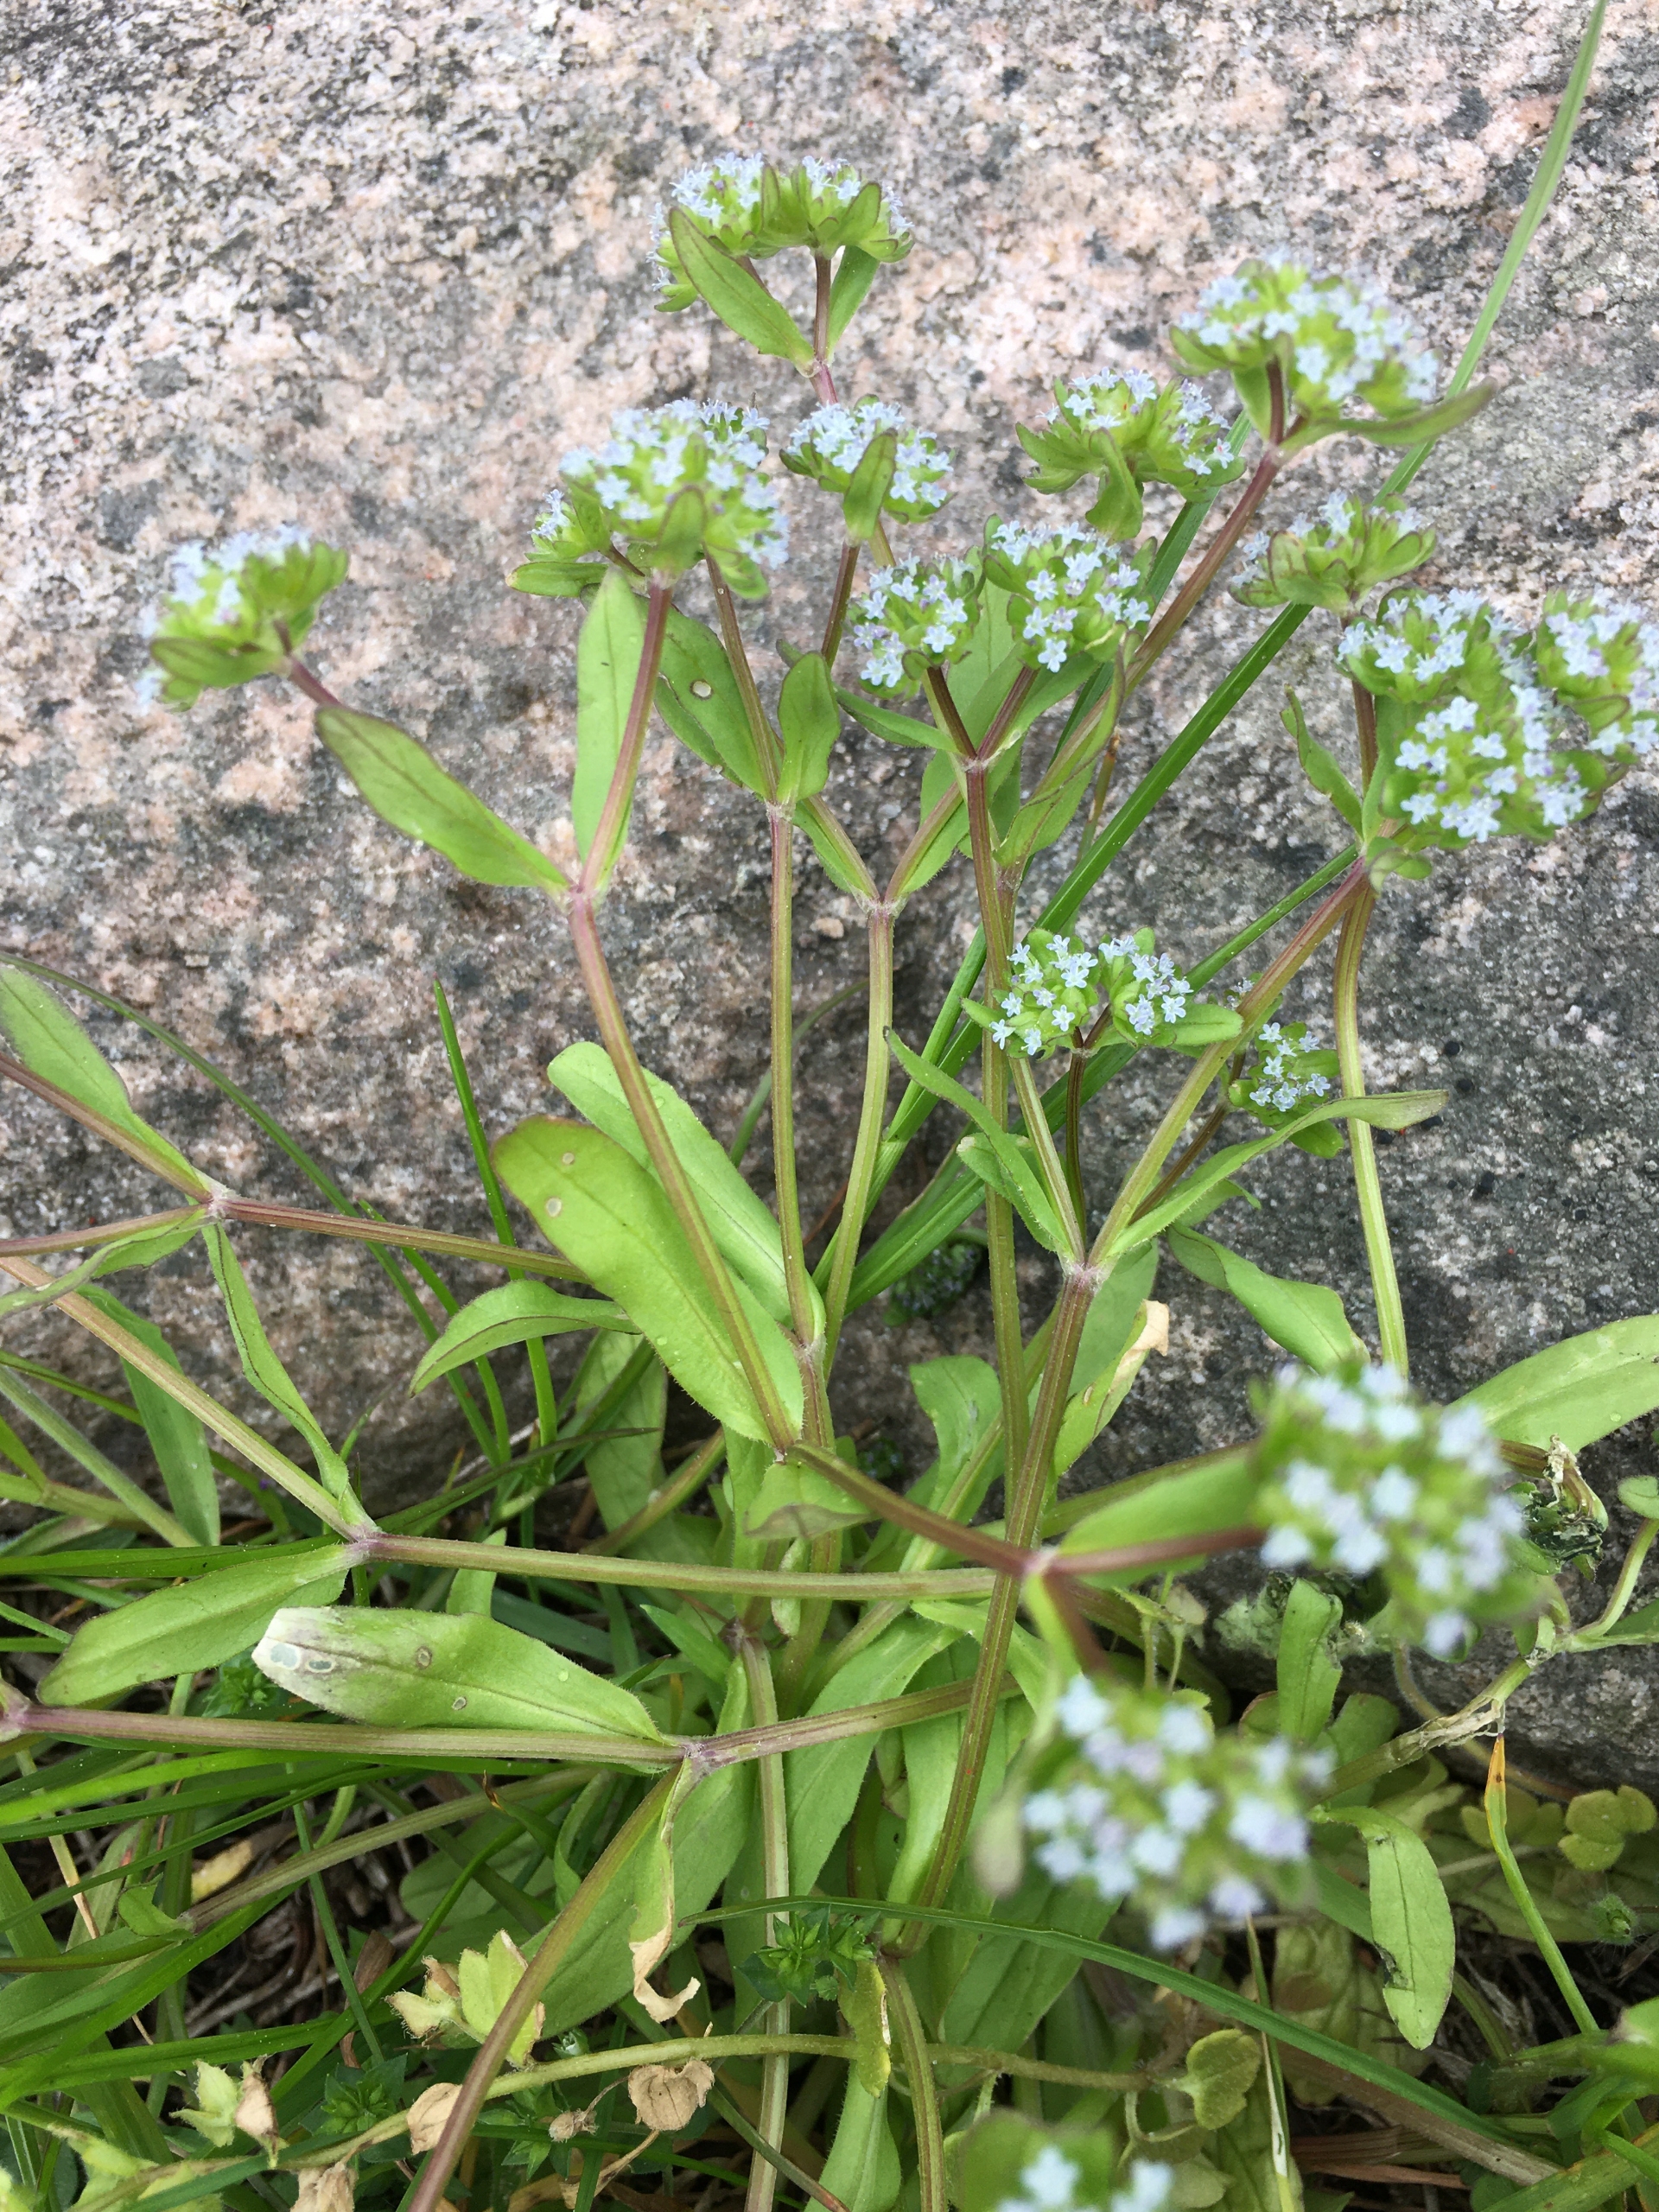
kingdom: Plantae
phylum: Tracheophyta
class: Magnoliopsida
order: Dipsacales
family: Caprifoliaceae
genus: Valerianella
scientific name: Valerianella locusta
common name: Tandfri vårsalat
